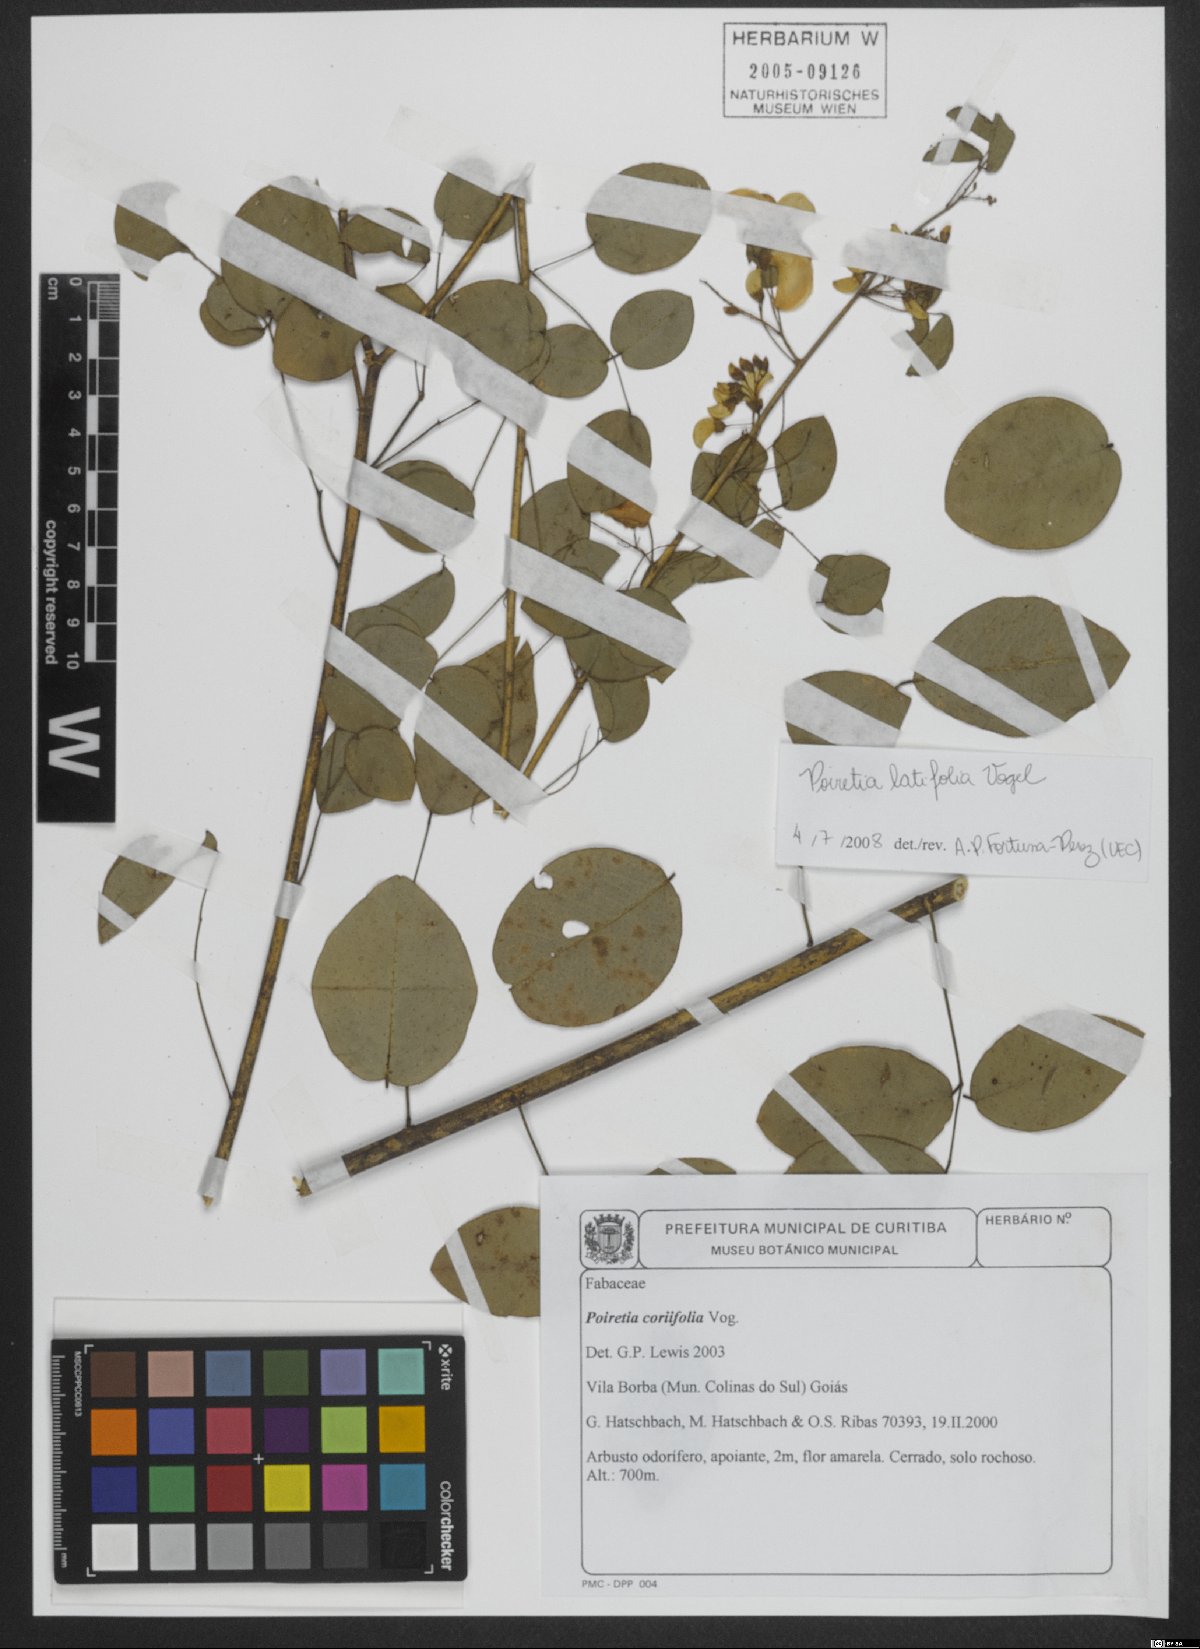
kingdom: Plantae
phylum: Tracheophyta
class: Magnoliopsida
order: Fabales
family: Fabaceae
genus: Poiretia
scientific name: Poiretia coriifolia
